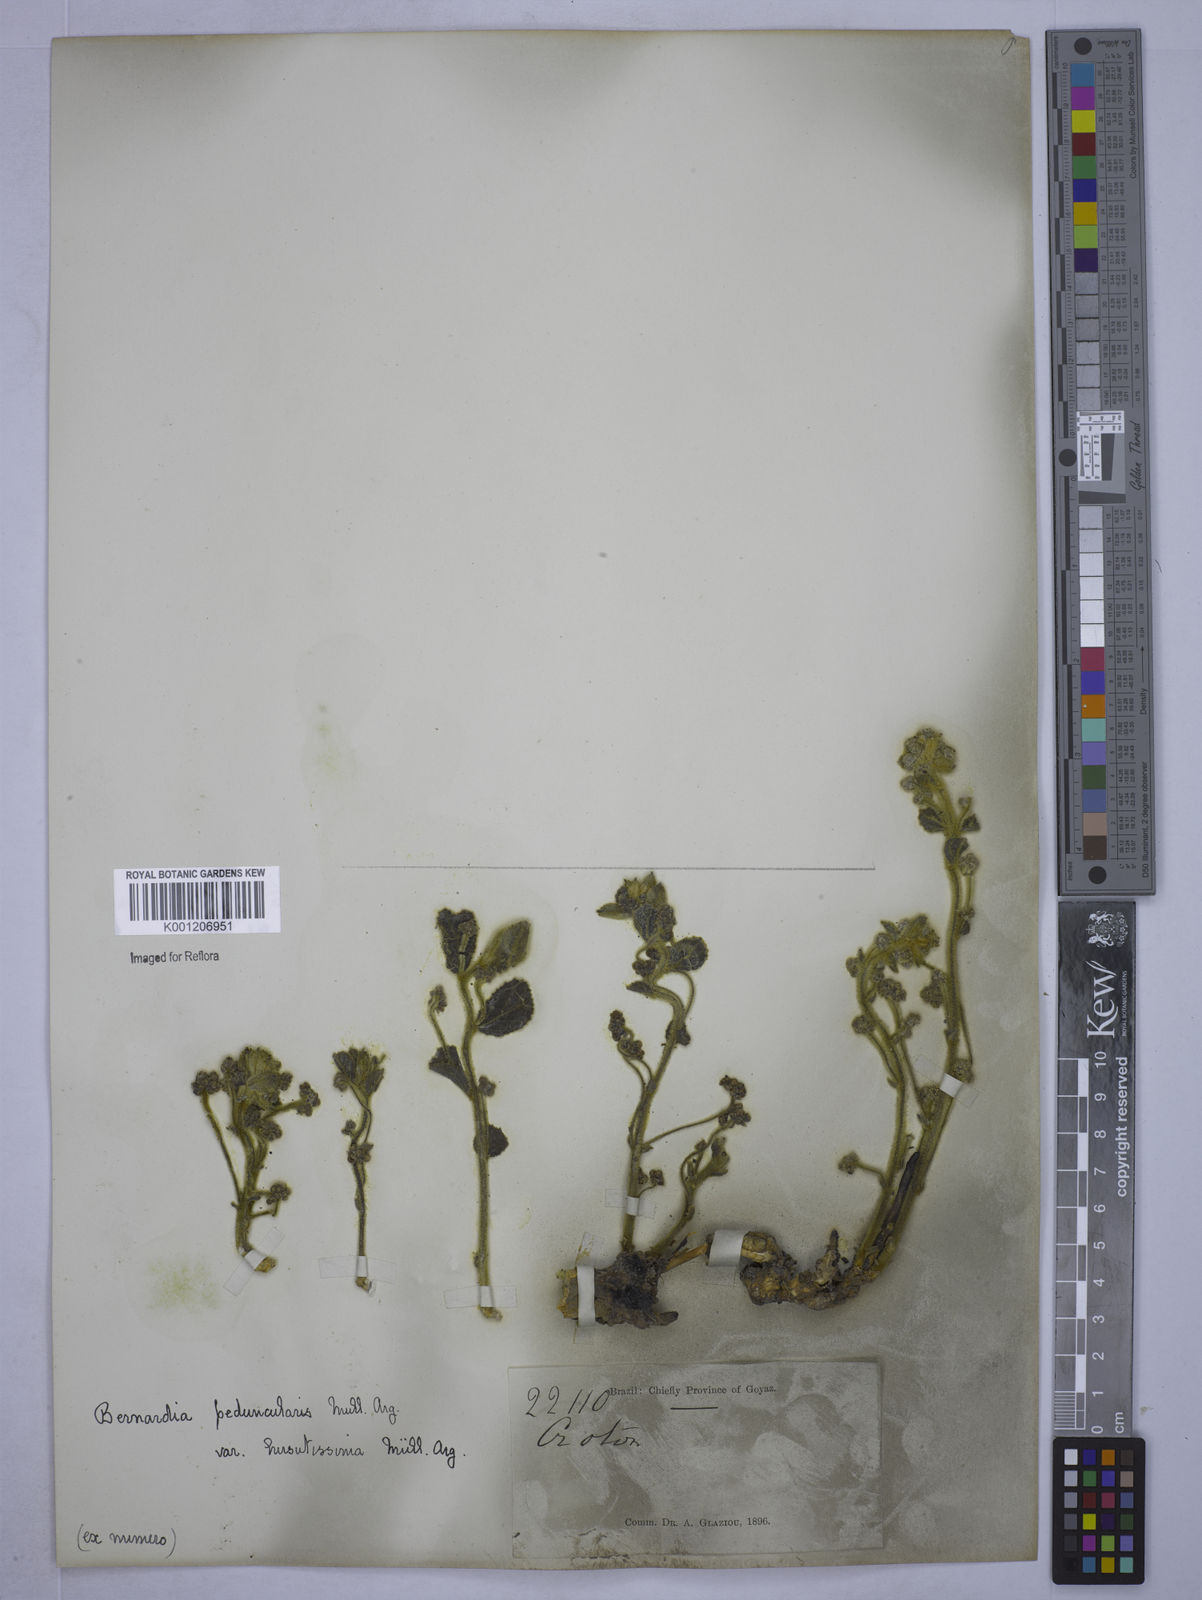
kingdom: Plantae
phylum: Tracheophyta
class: Magnoliopsida
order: Malpighiales
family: Euphorbiaceae
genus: Bernardia
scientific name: Bernardia
